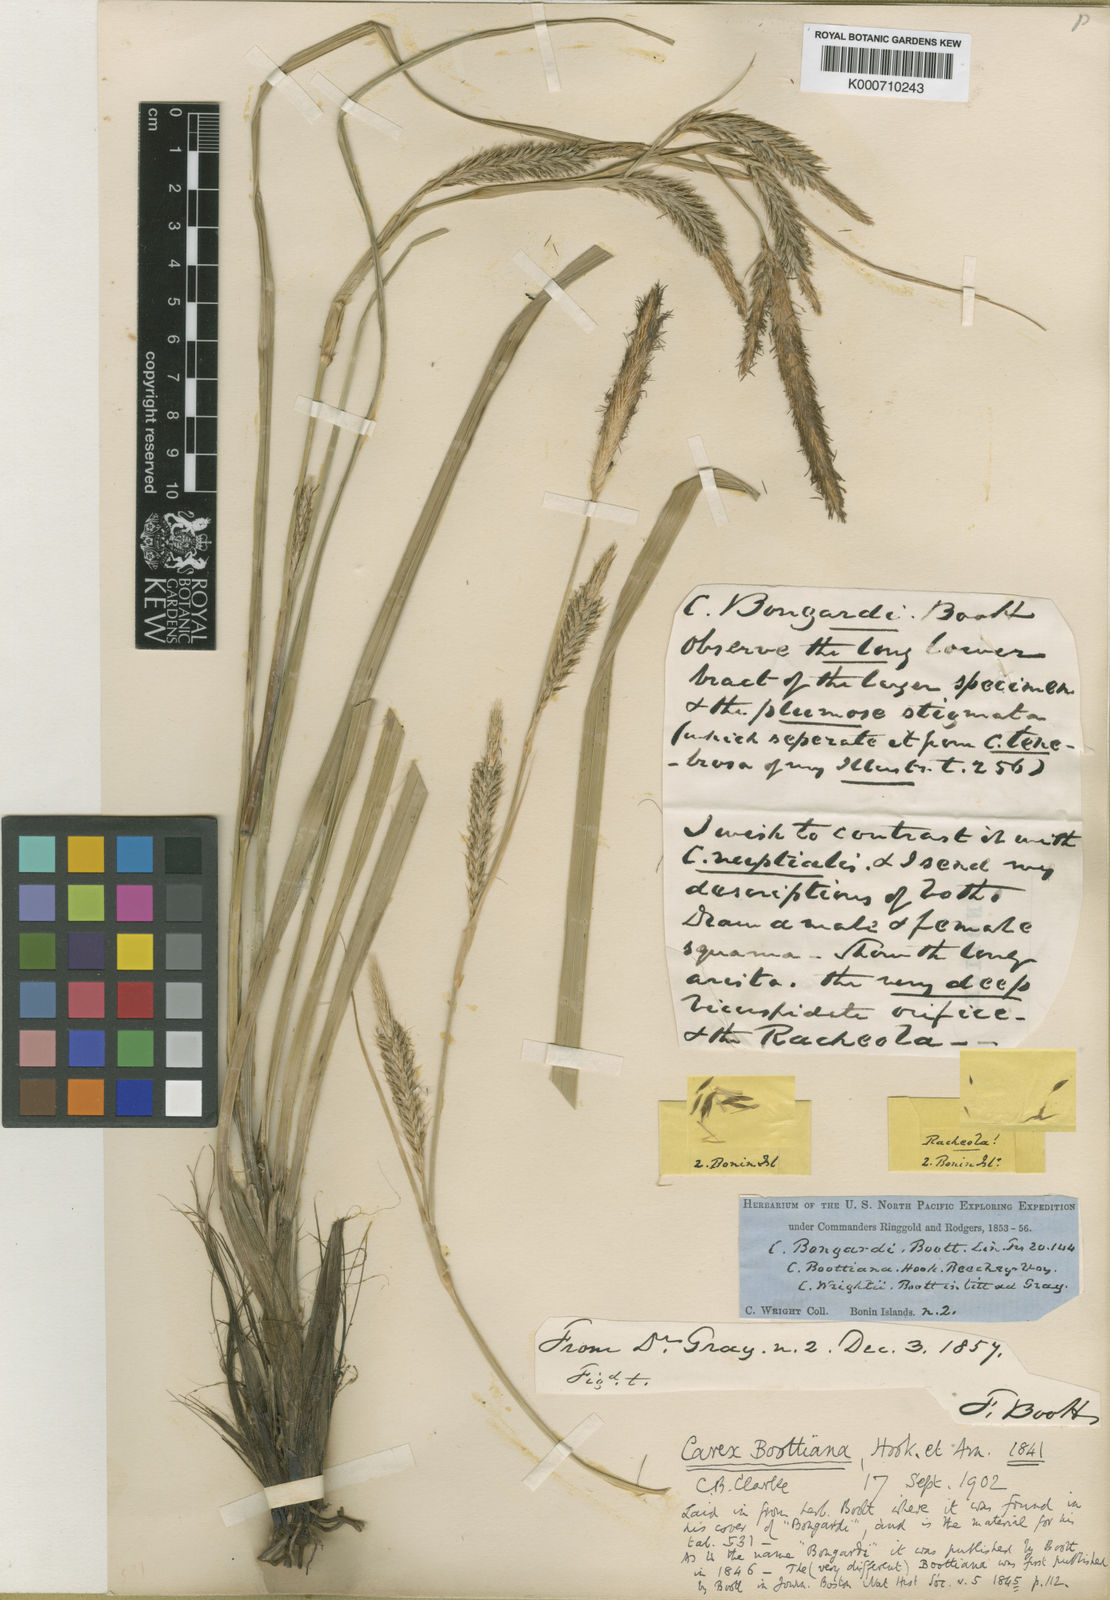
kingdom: Plantae
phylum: Tracheophyta
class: Liliopsida
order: Poales
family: Cyperaceae
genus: Carex
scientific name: Carex wahuensis
